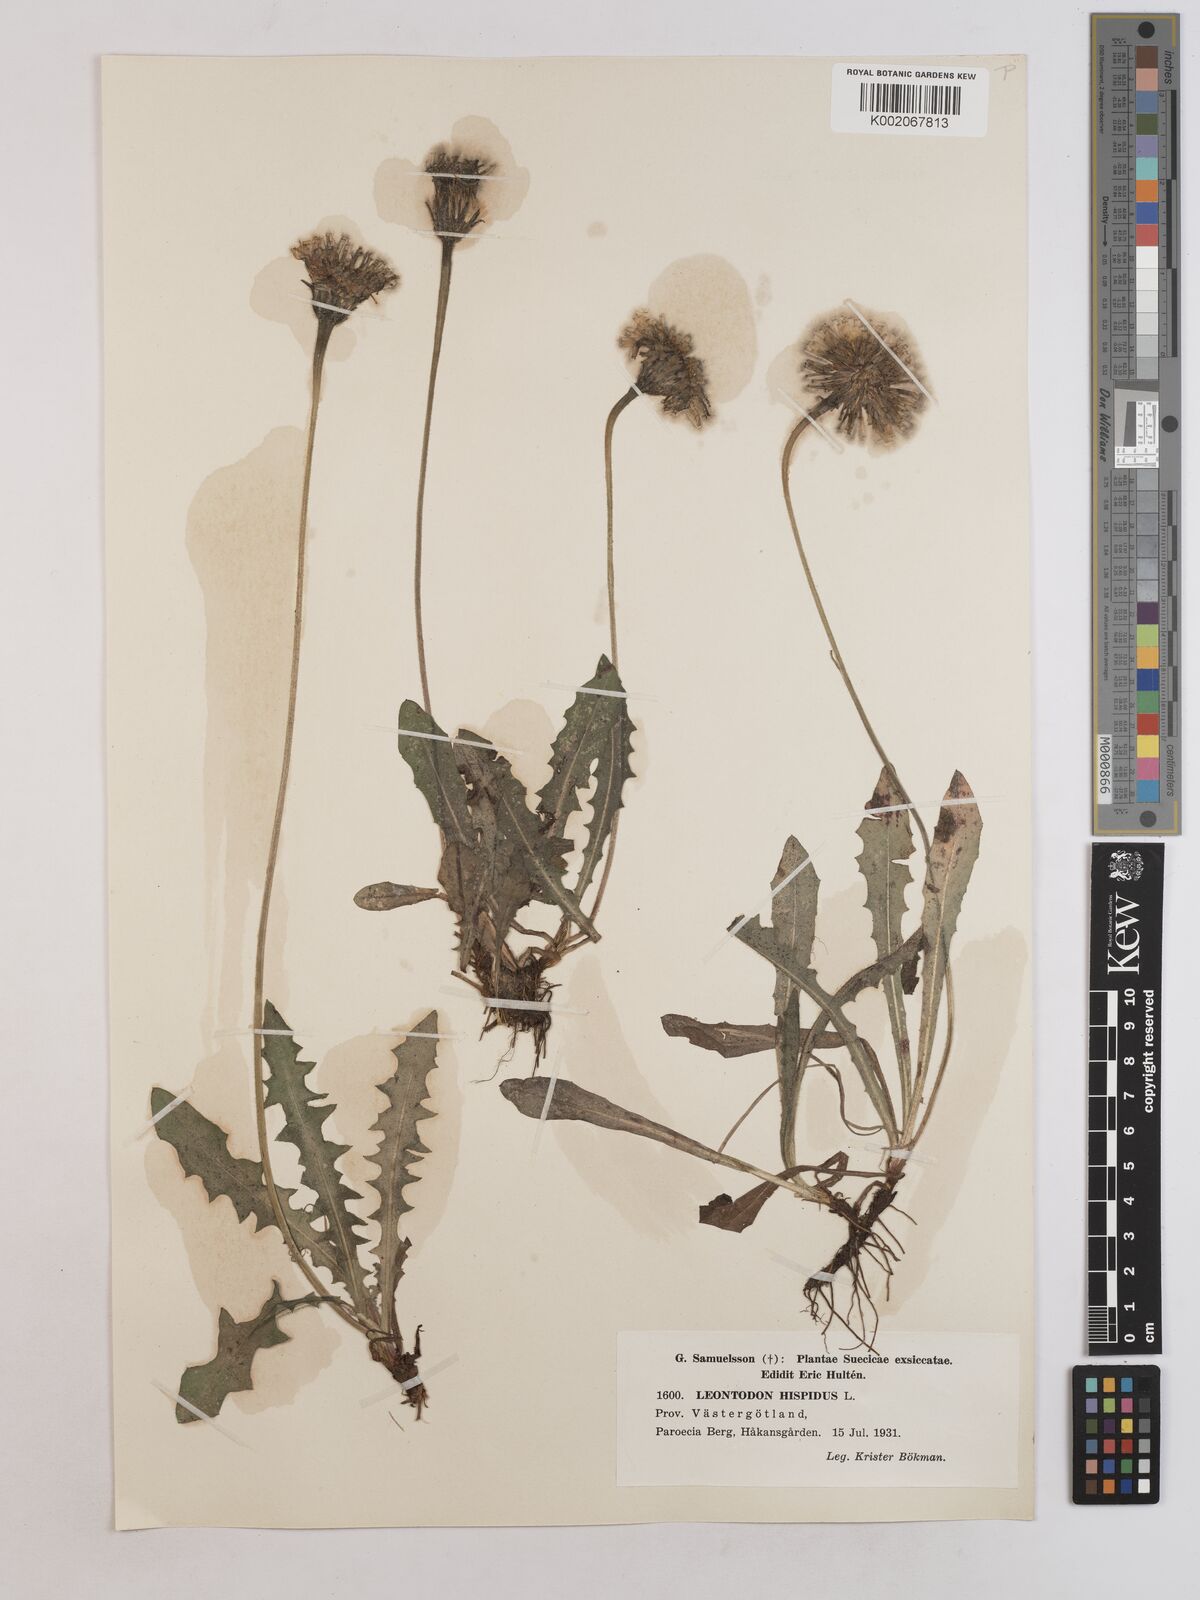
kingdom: Plantae
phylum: Tracheophyta
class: Magnoliopsida
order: Asterales
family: Asteraceae
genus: Leontodon
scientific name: Leontodon hispidus
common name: Rough hawkbit
